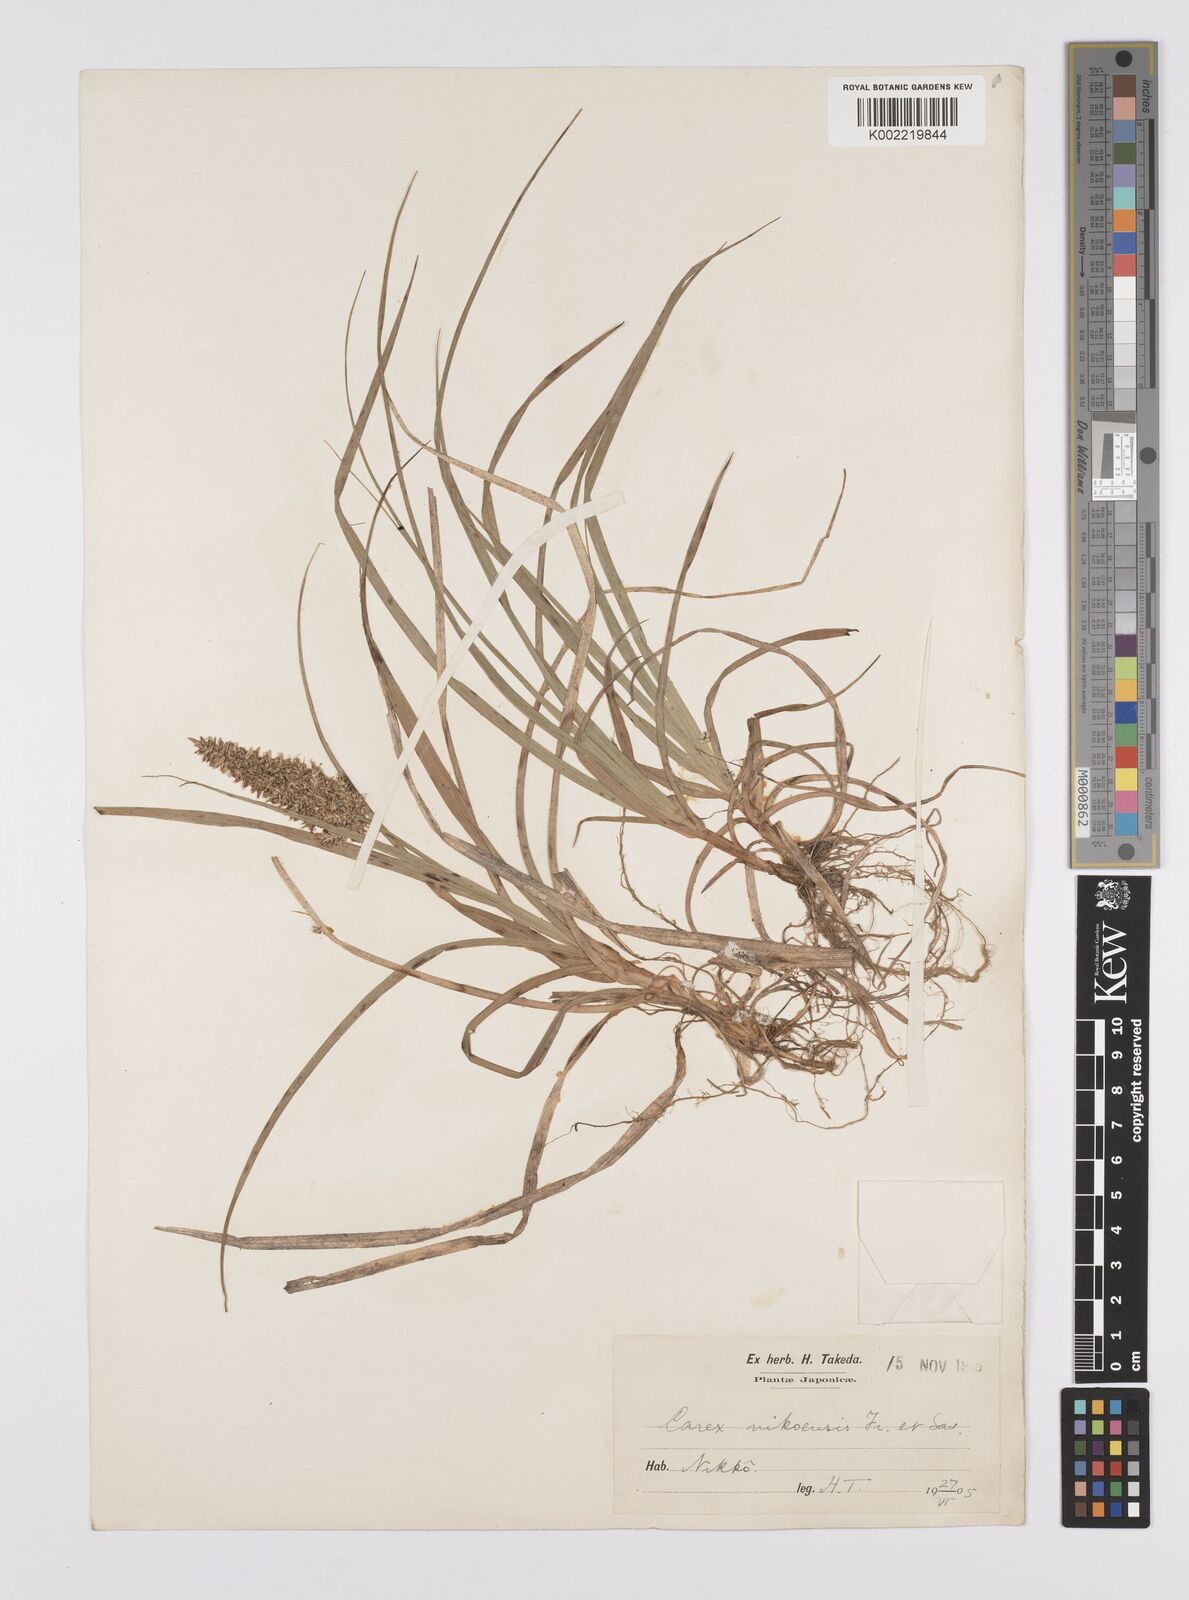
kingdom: Plantae
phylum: Tracheophyta
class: Liliopsida
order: Poales
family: Cyperaceae
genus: Carex
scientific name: Carex satsumensis
